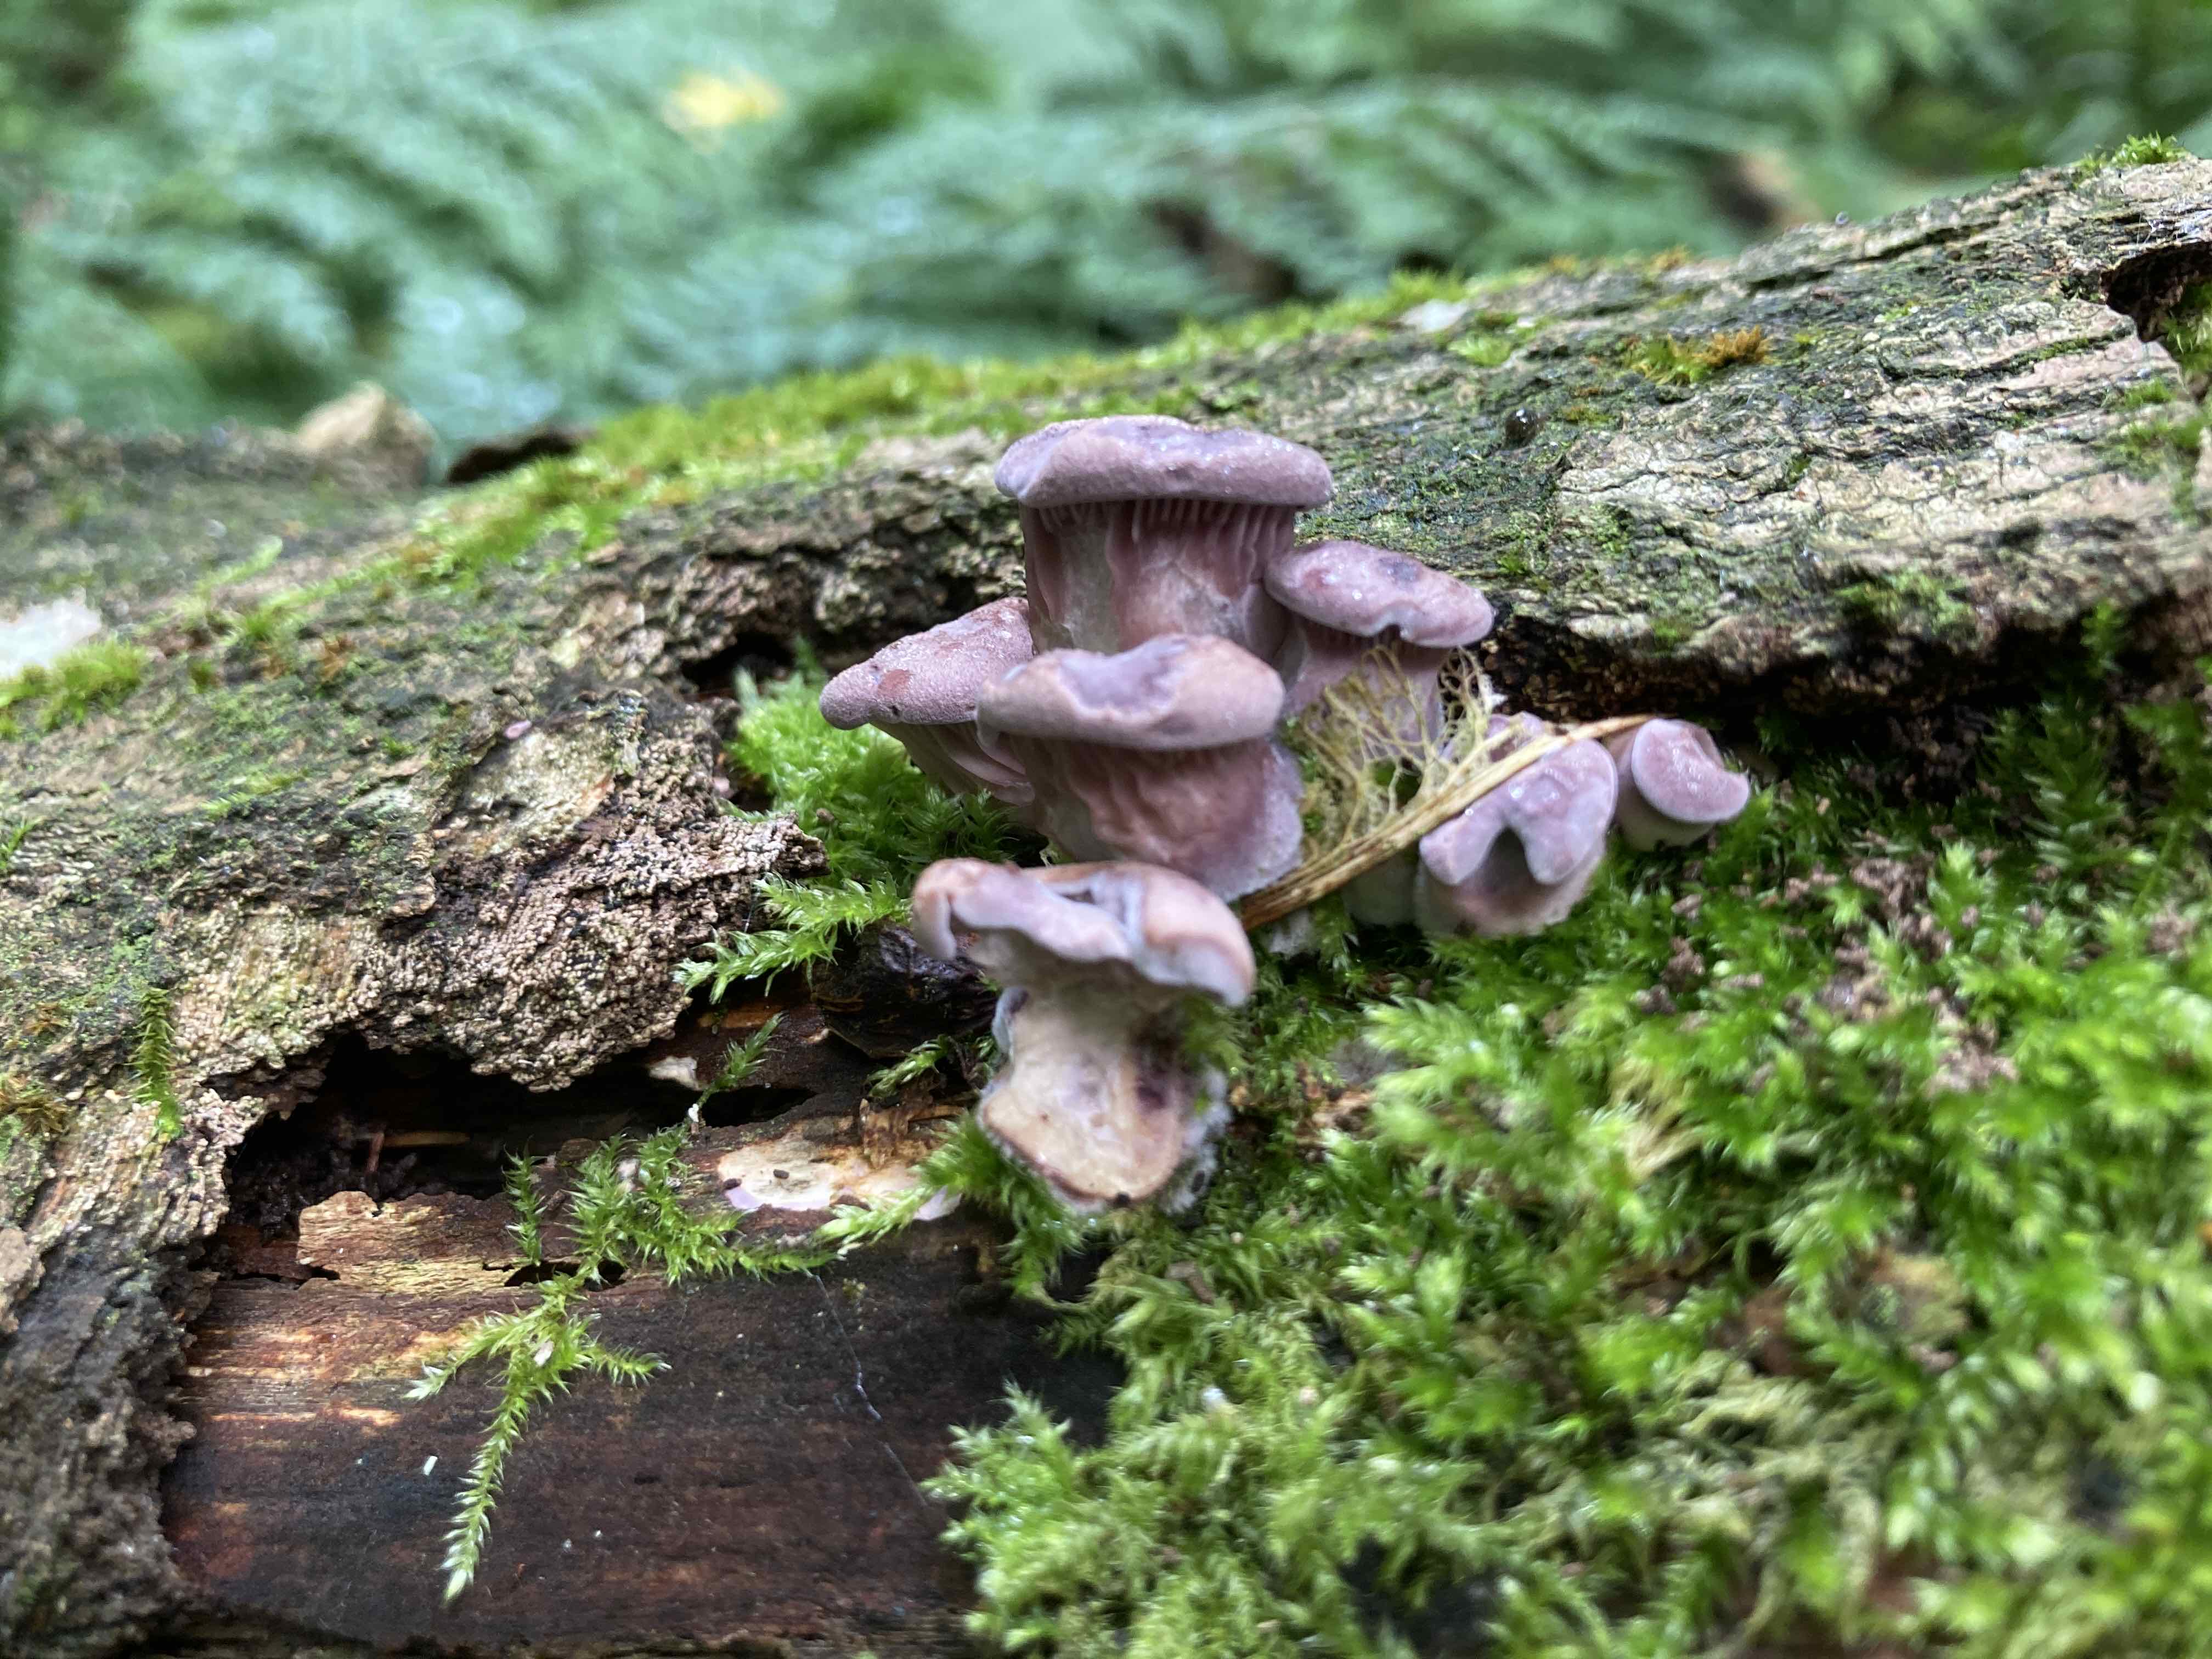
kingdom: Fungi
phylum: Basidiomycota
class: Agaricomycetes
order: Polyporales
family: Panaceae
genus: Panus
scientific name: Panus conchatus
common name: filtstokket læderhat
